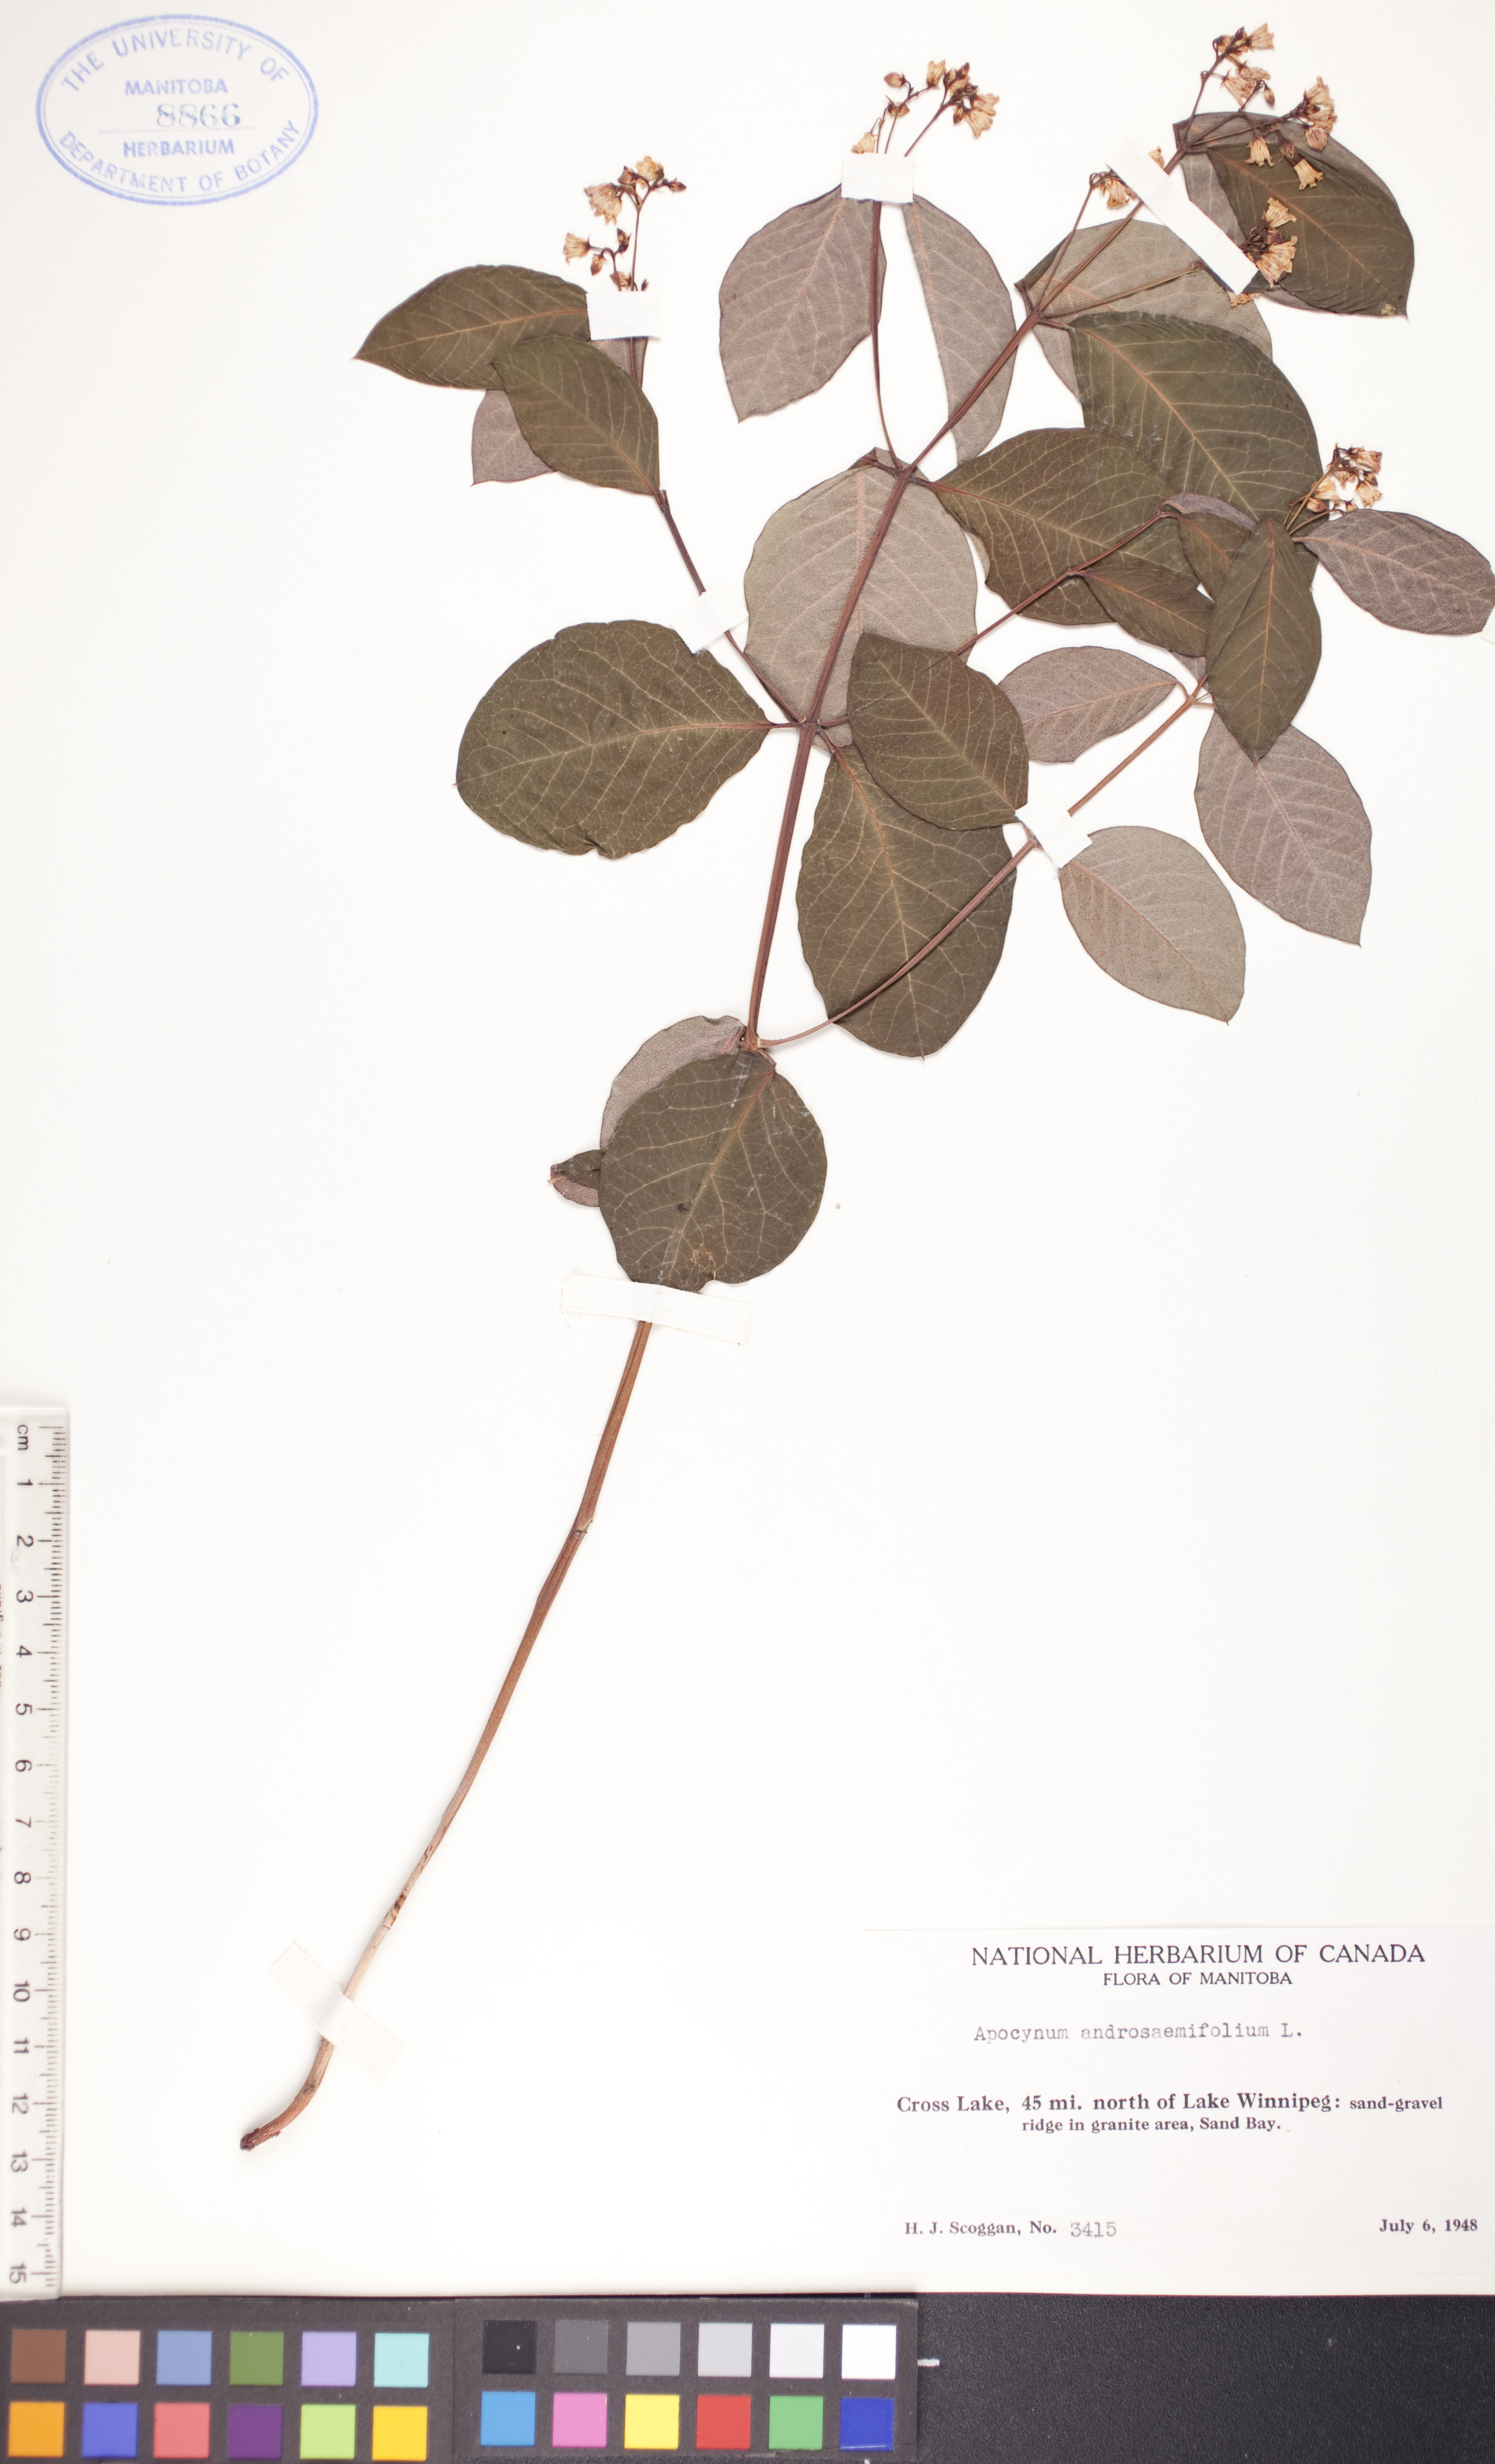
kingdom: Plantae
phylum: Tracheophyta
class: Magnoliopsida
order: Gentianales
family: Apocynaceae
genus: Apocynum
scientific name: Apocynum androsaemifolium
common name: Spreading dogbane
